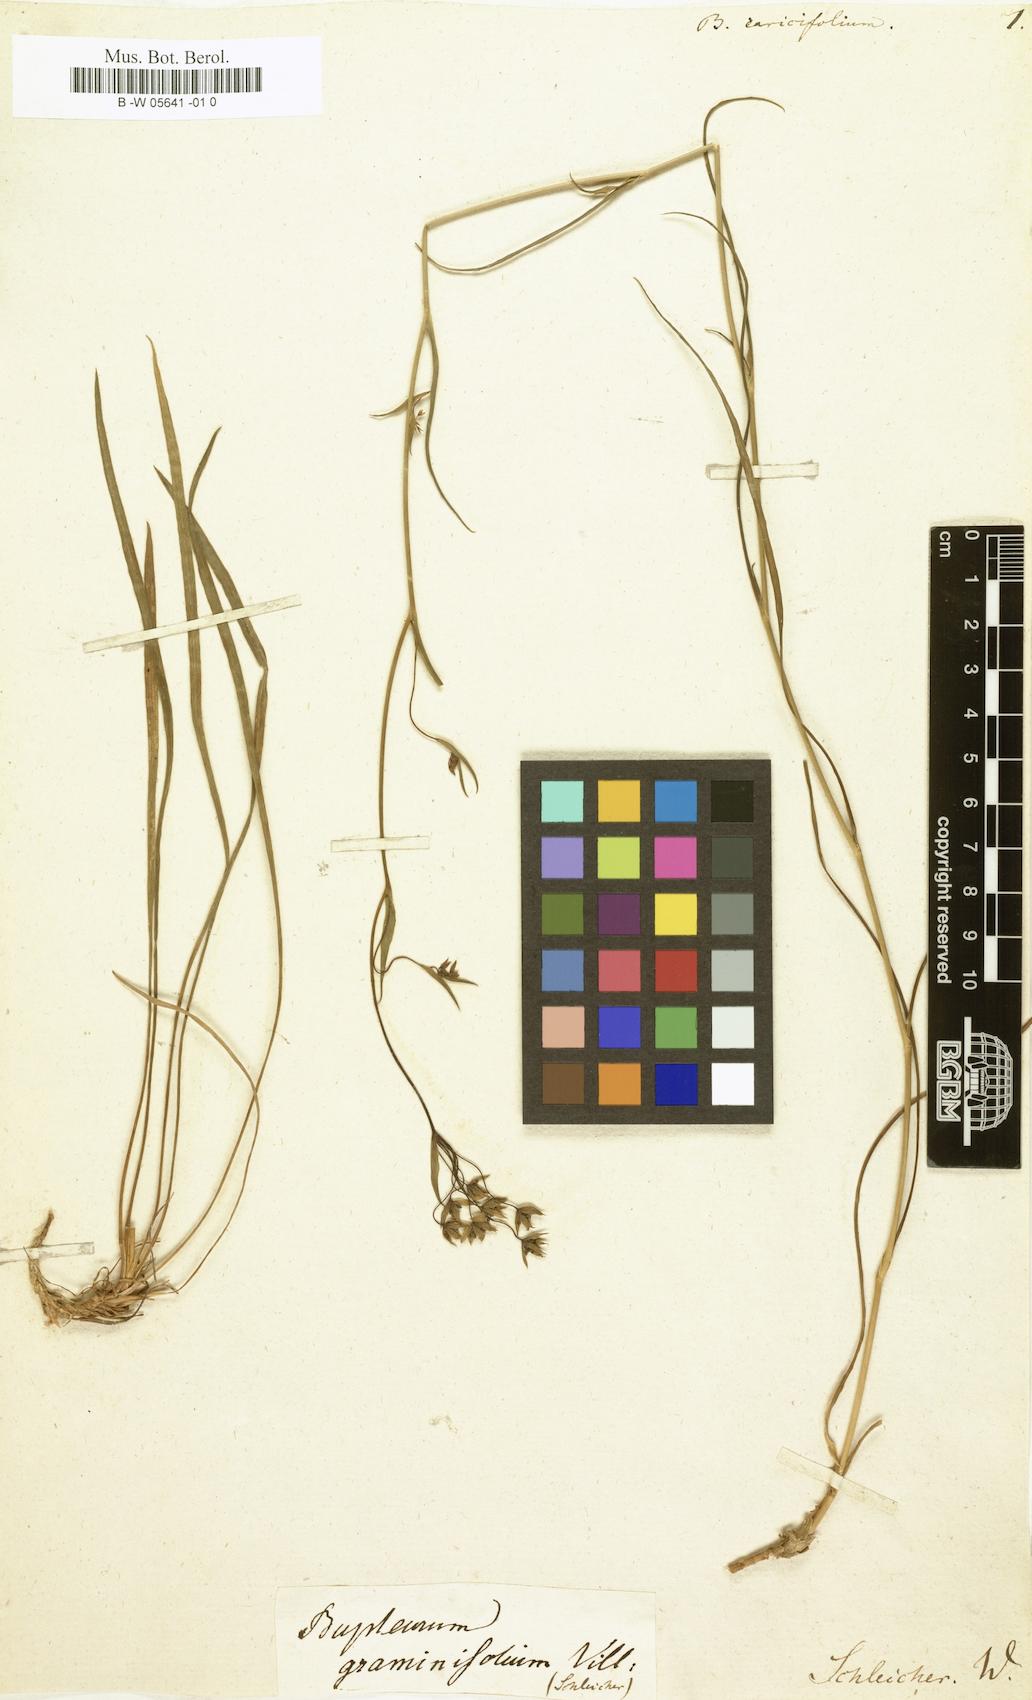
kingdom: Plantae
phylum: Tracheophyta
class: Magnoliopsida
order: Apiales
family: Apiaceae
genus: Bupleurum
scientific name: Bupleurum ranunculoides
